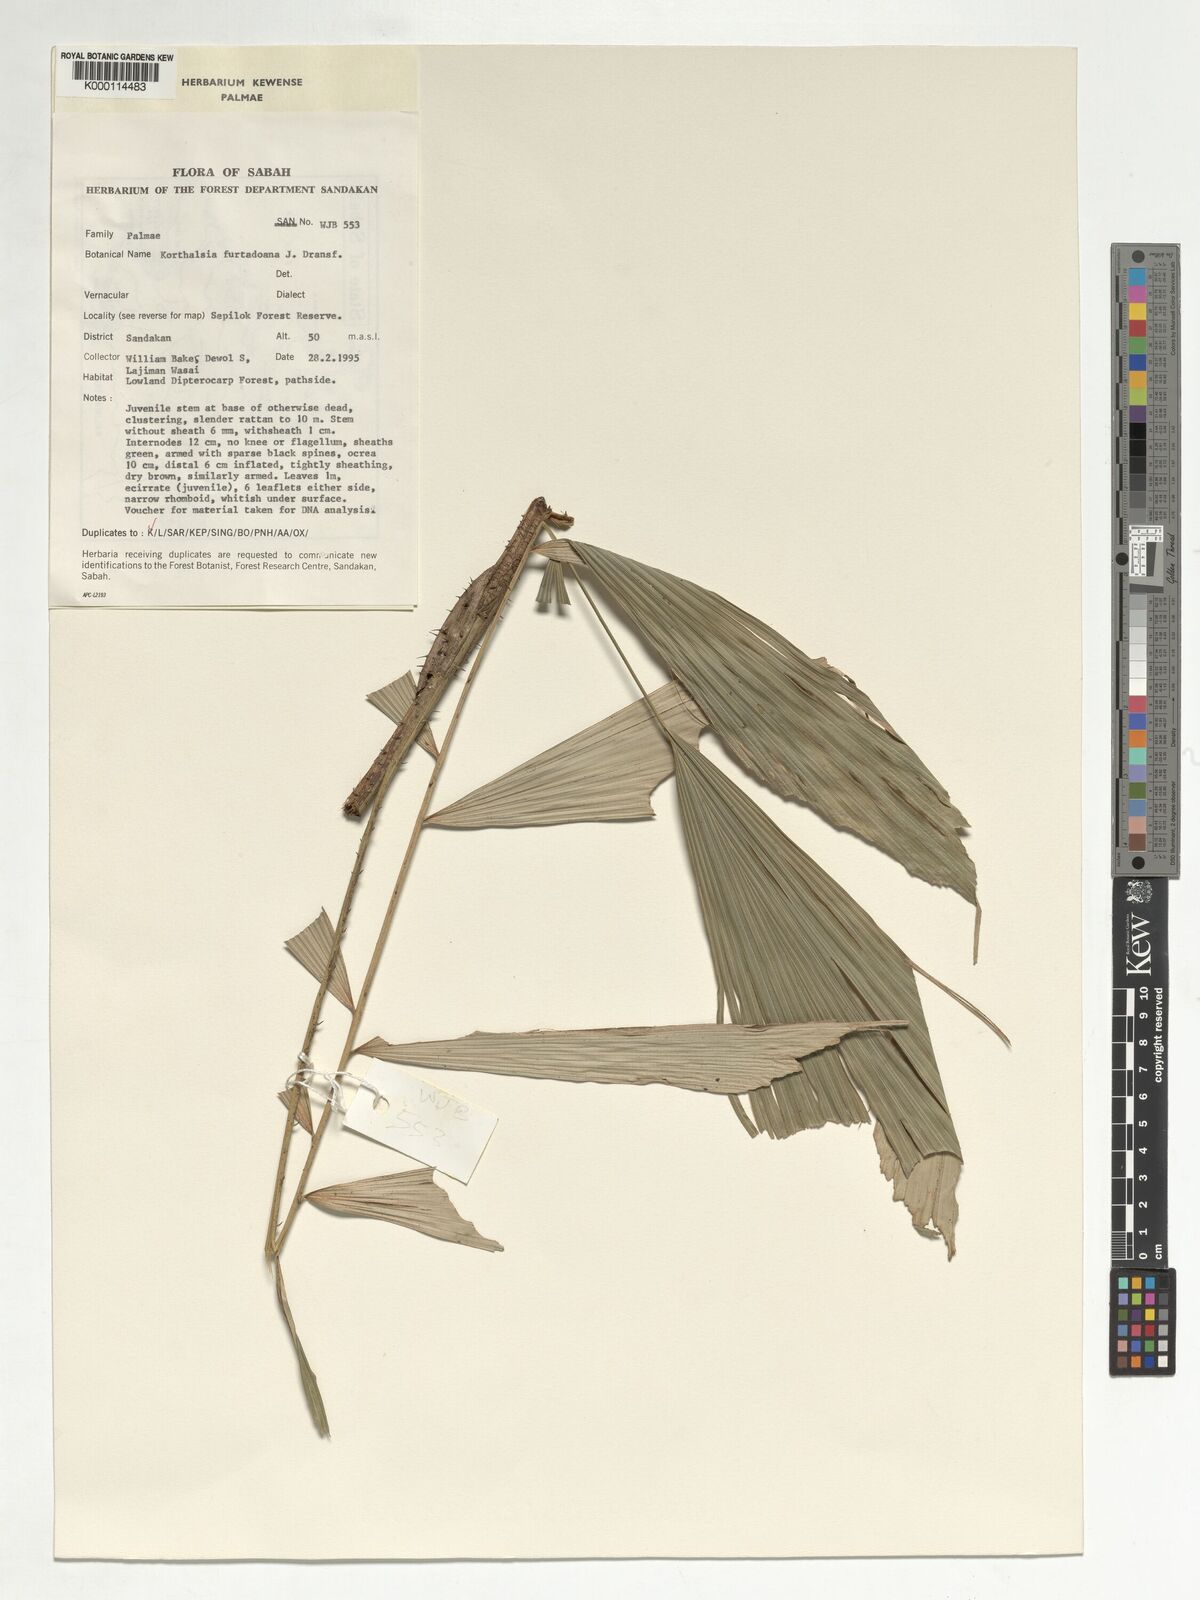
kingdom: Plantae
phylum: Tracheophyta
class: Liliopsida
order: Arecales
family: Arecaceae
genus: Korthalsia
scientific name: Korthalsia furtadoana
